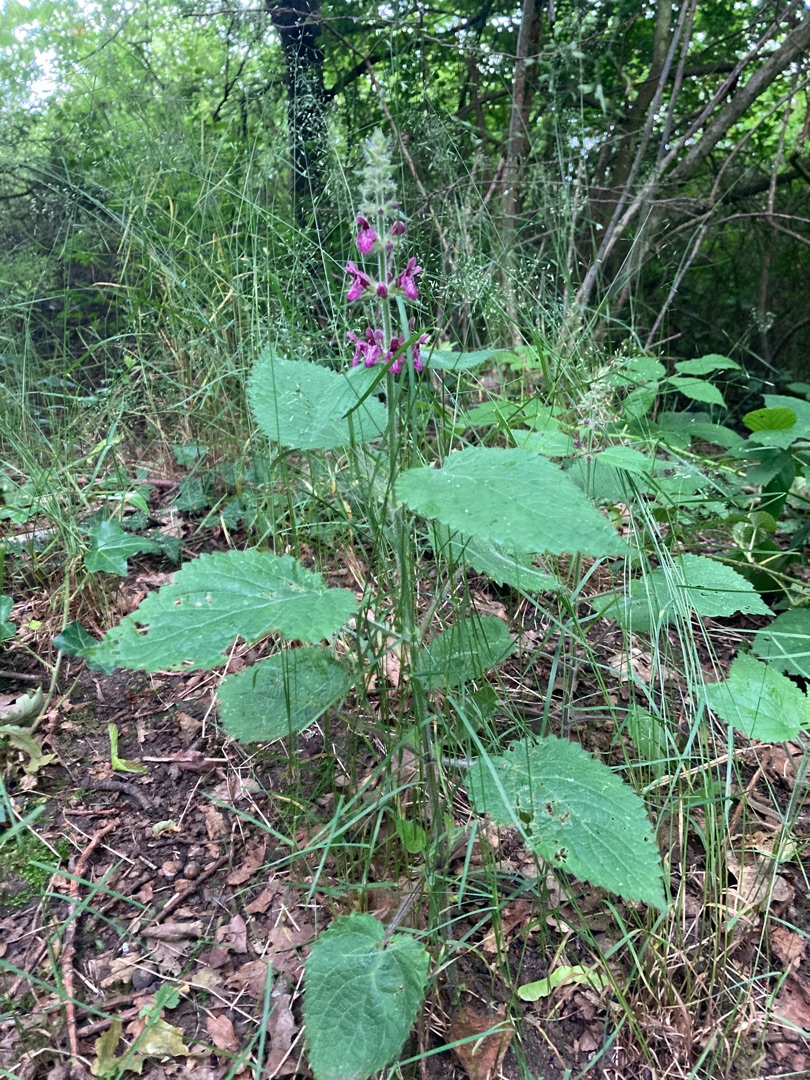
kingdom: Plantae
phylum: Tracheophyta
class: Magnoliopsida
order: Lamiales
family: Lamiaceae
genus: Stachys
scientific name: Stachys sylvatica
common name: Skov-galtetand
